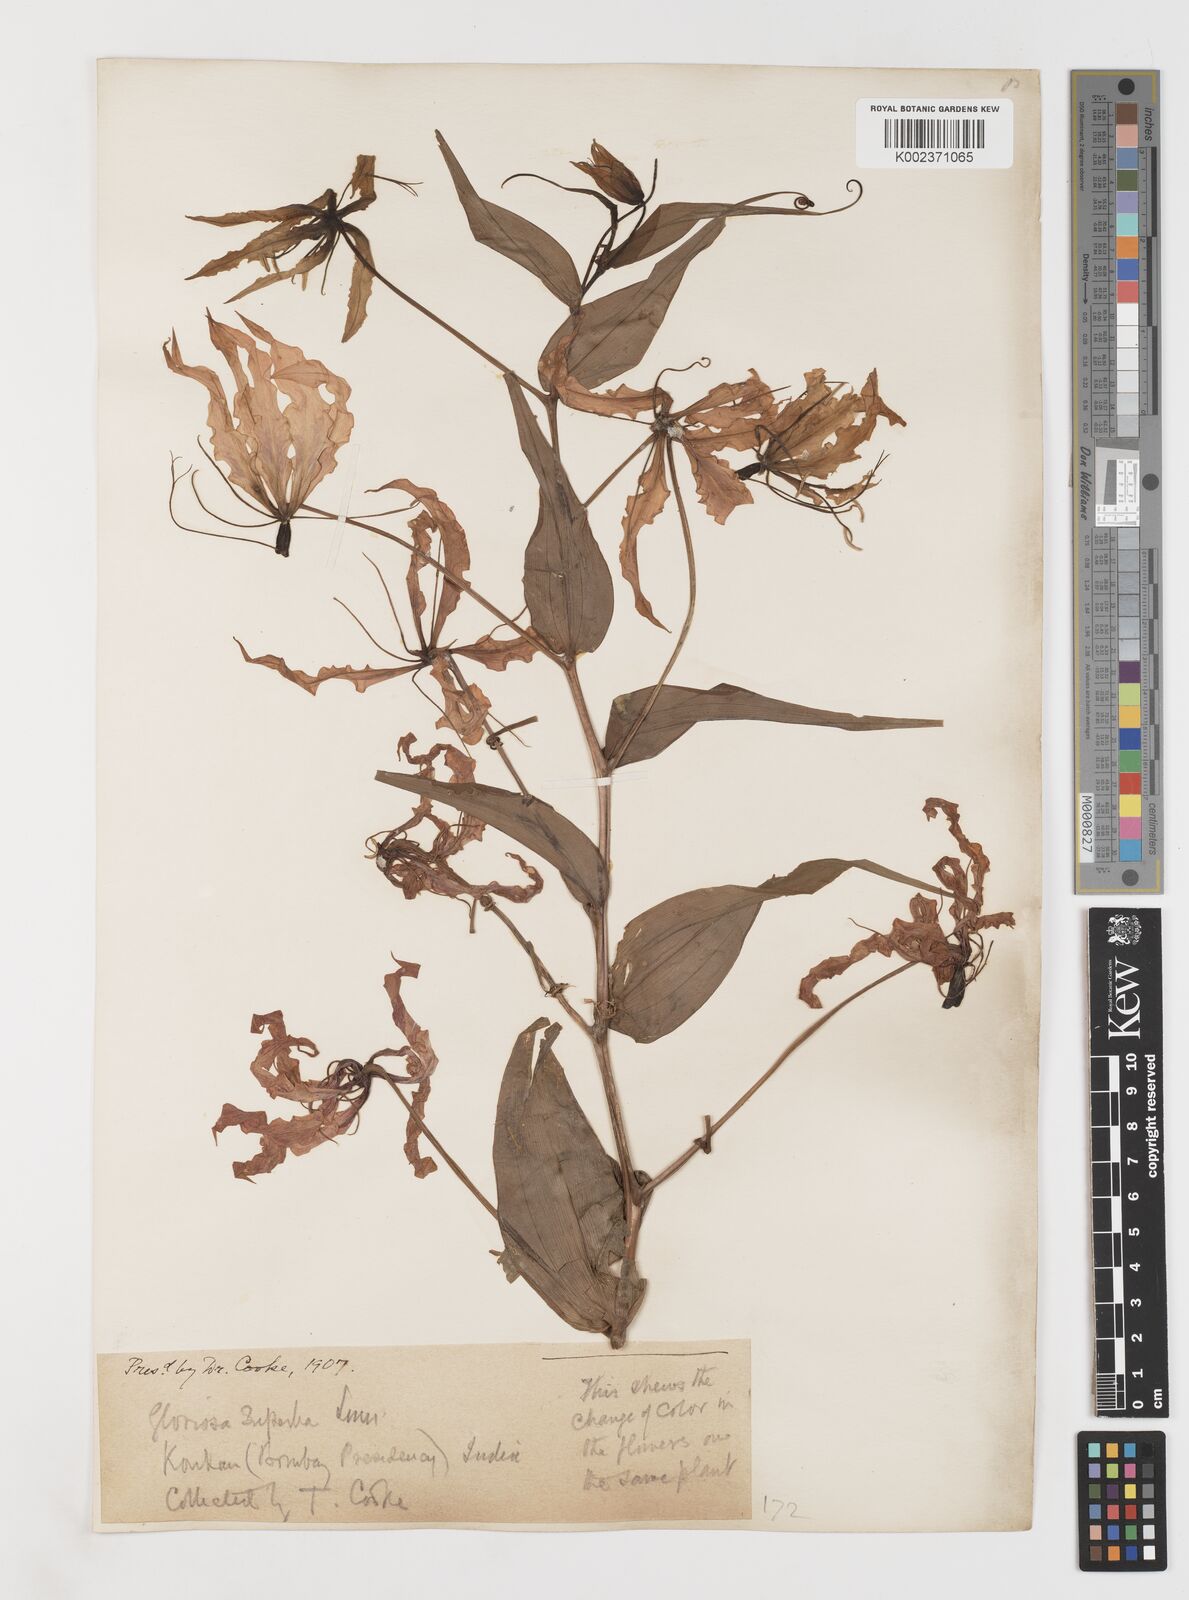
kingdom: Plantae
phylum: Tracheophyta
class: Liliopsida
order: Liliales
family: Colchicaceae
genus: Gloriosa
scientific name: Gloriosa superba
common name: Flame lily
